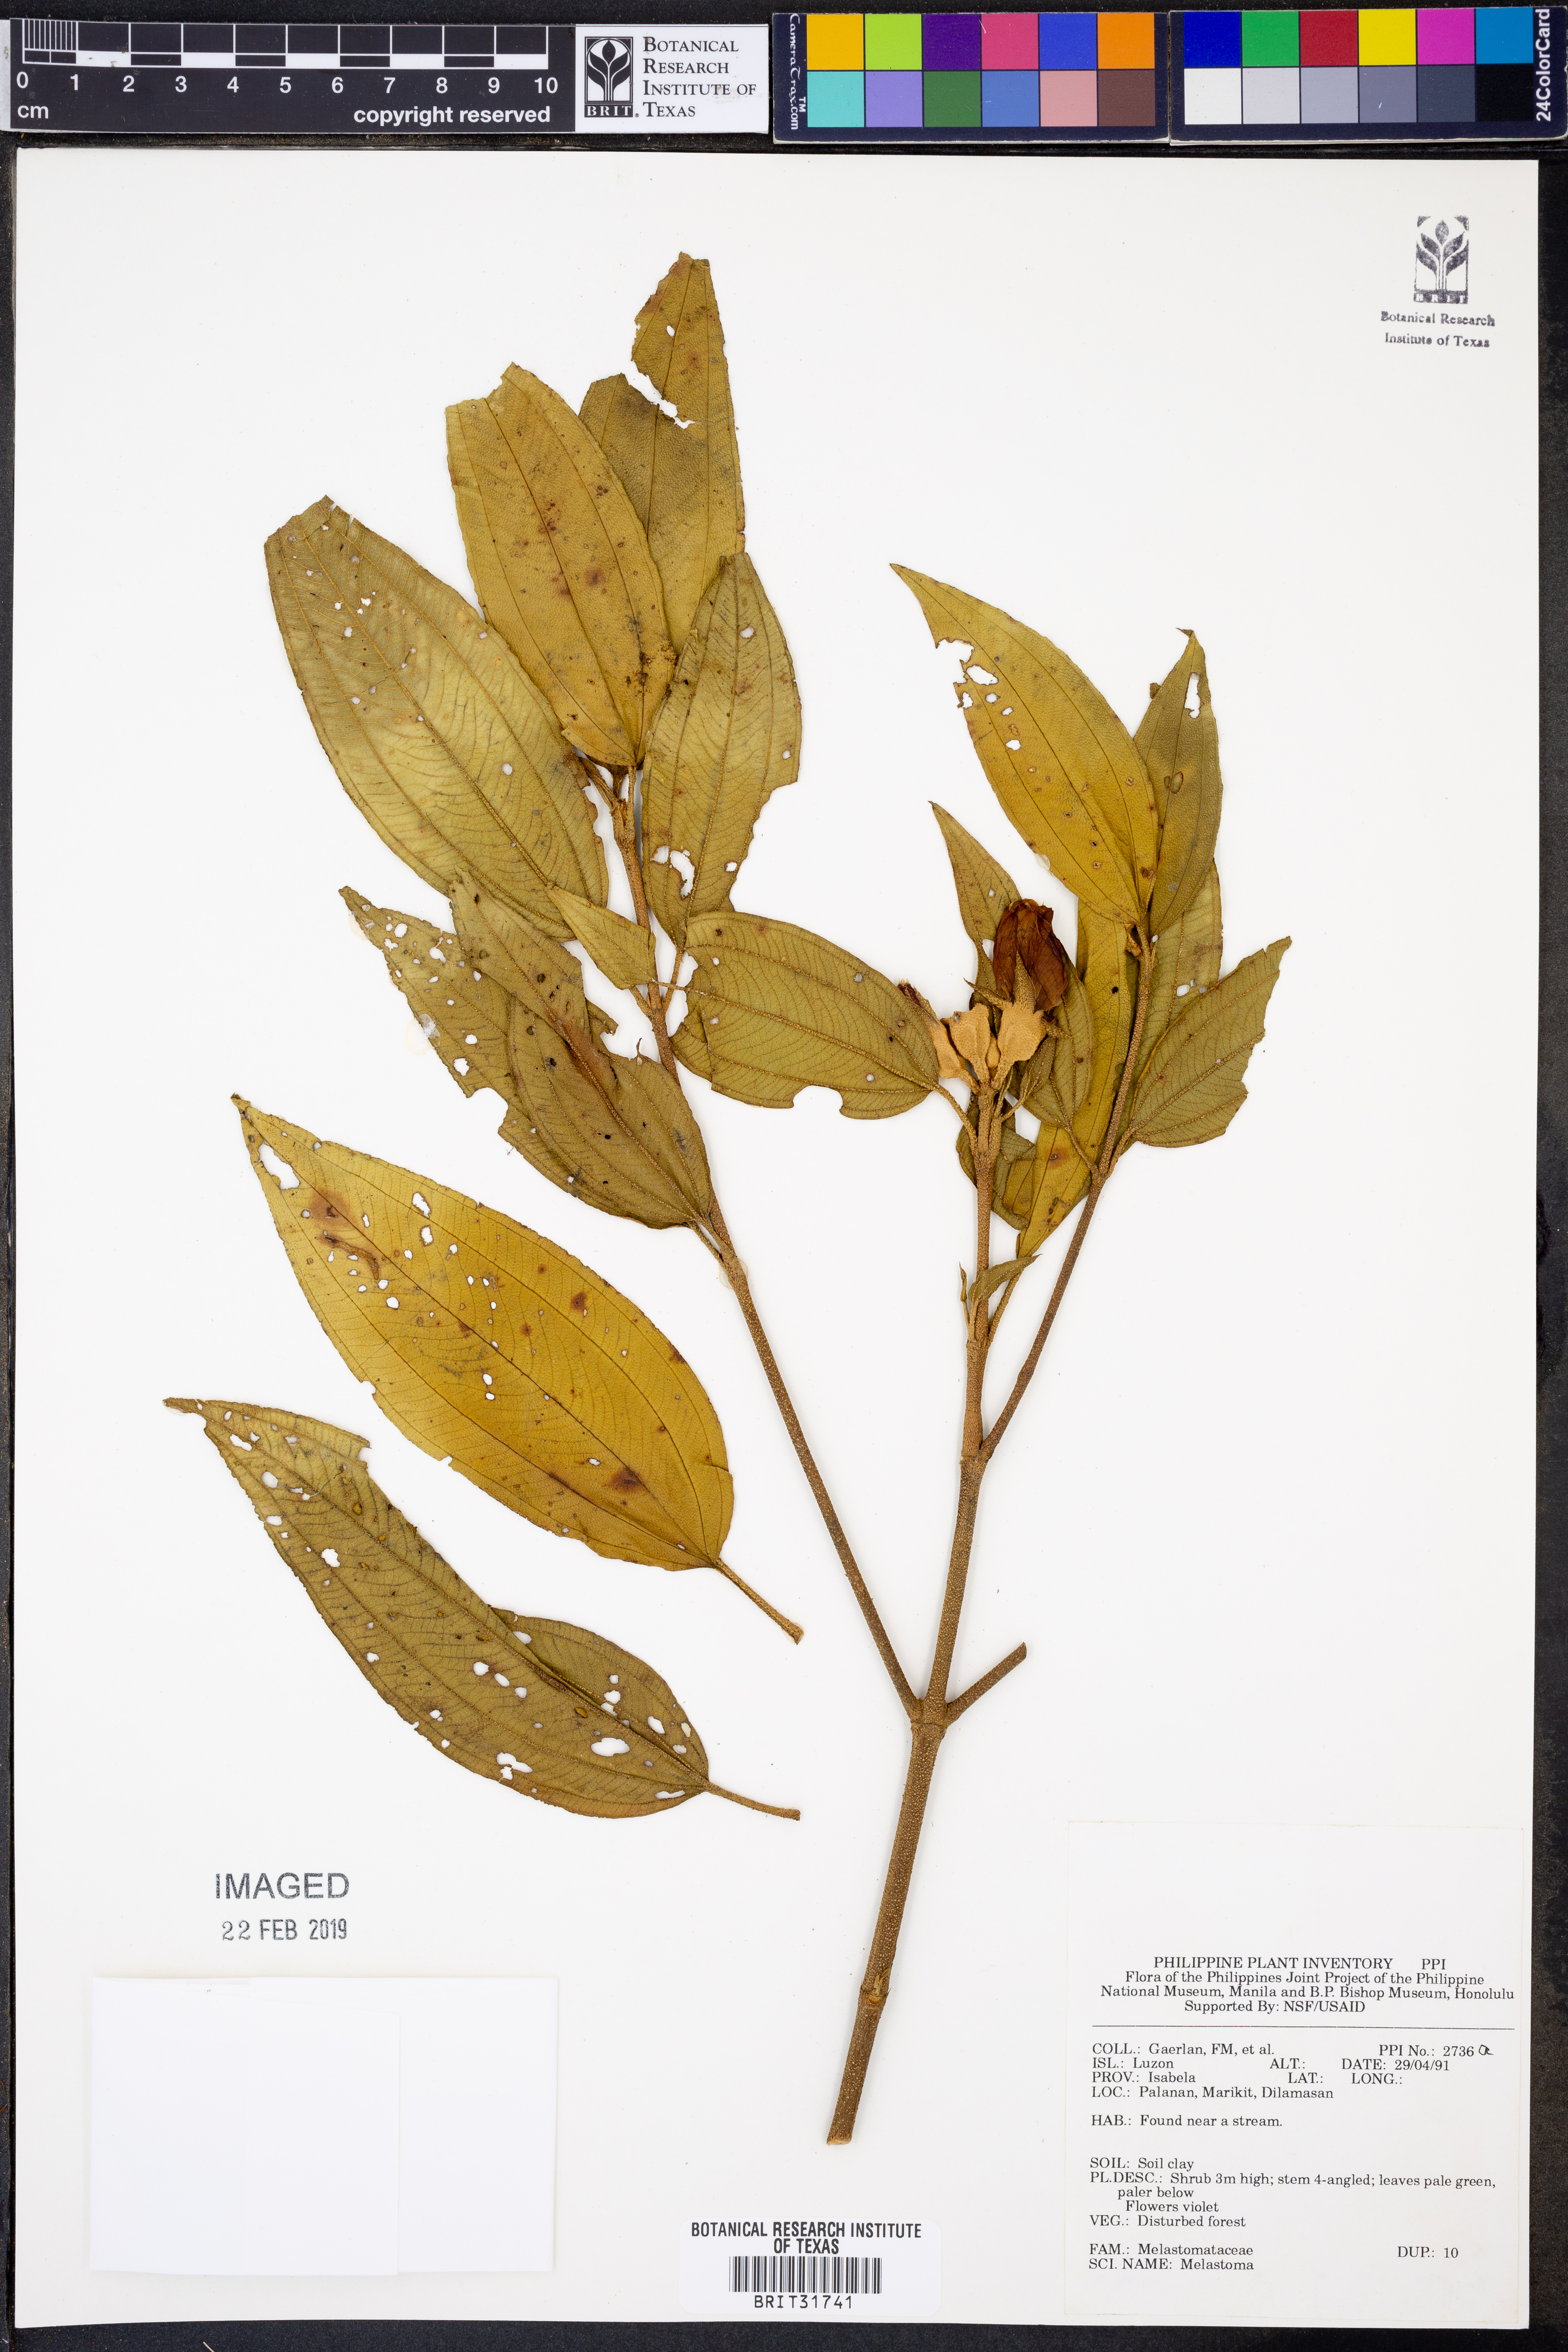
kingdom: Plantae
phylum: Tracheophyta
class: Magnoliopsida
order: Myrtales
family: Melastomataceae
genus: Melastoma
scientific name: Melastoma
